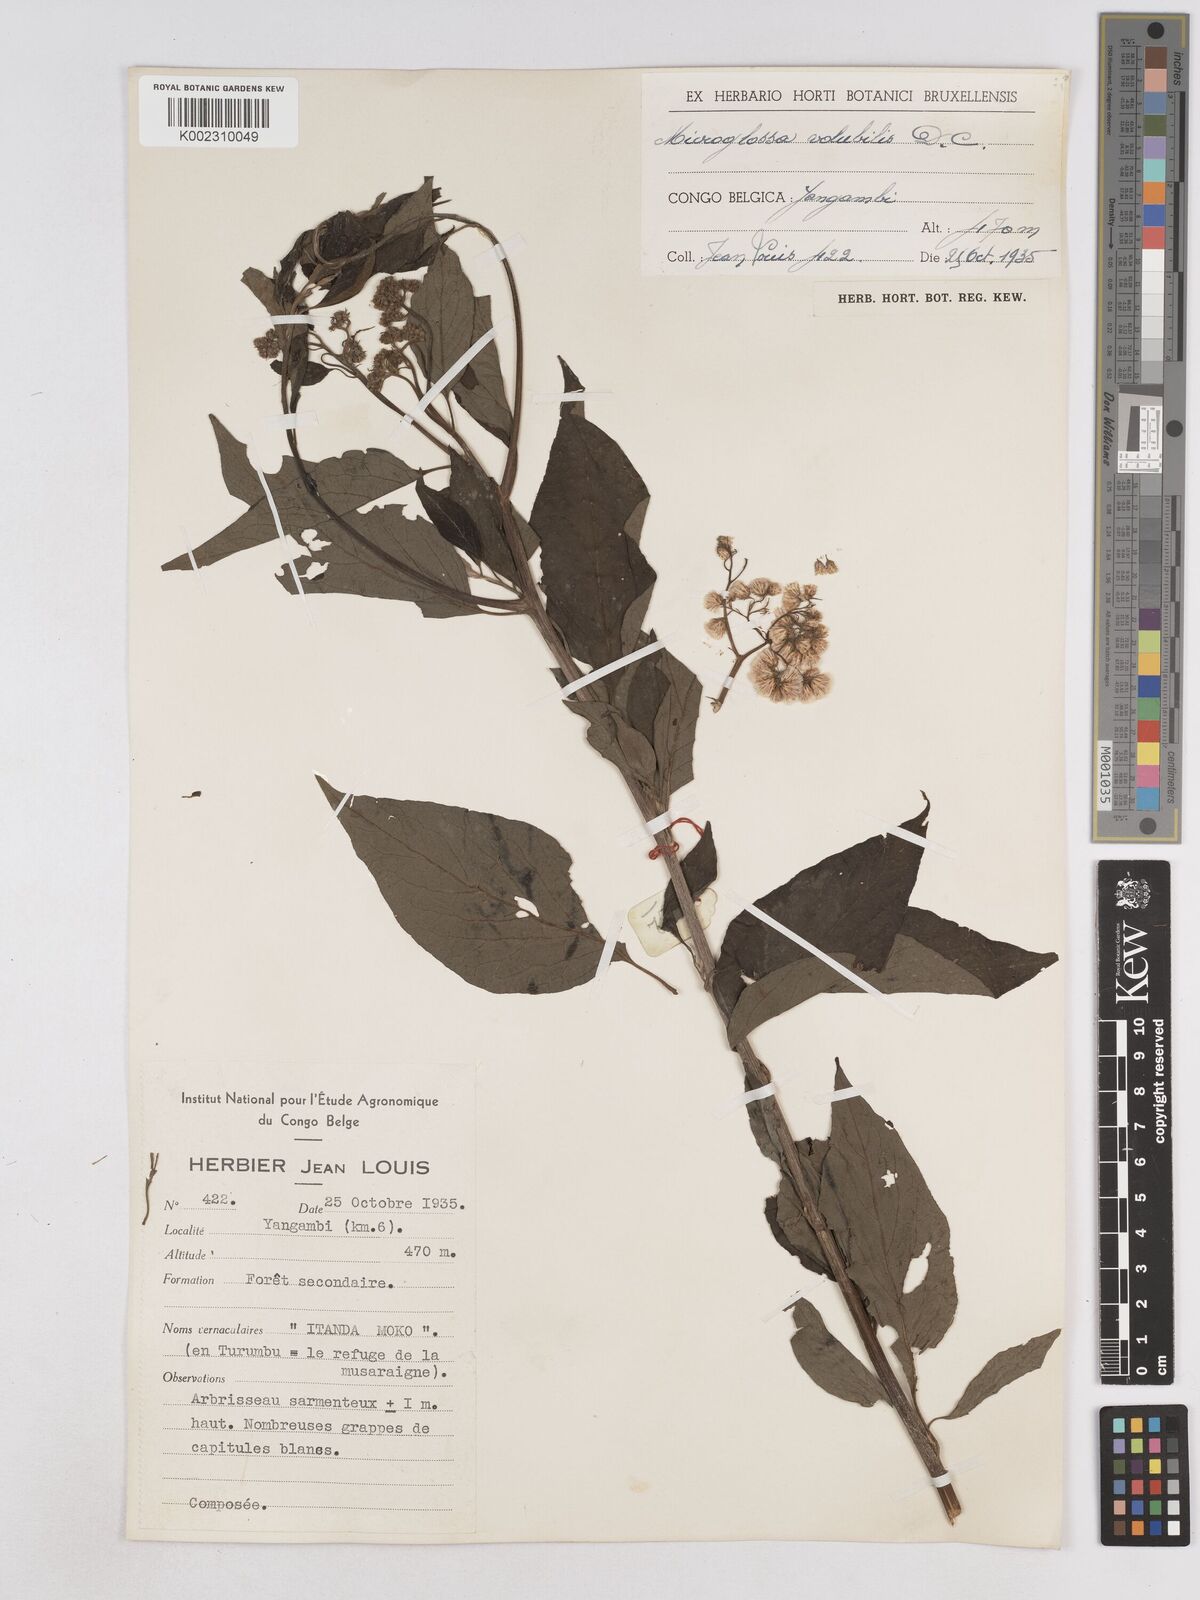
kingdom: Plantae
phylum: Tracheophyta
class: Magnoliopsida
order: Asterales
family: Asteraceae
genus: Microglossa
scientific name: Microglossa pyrifolia
